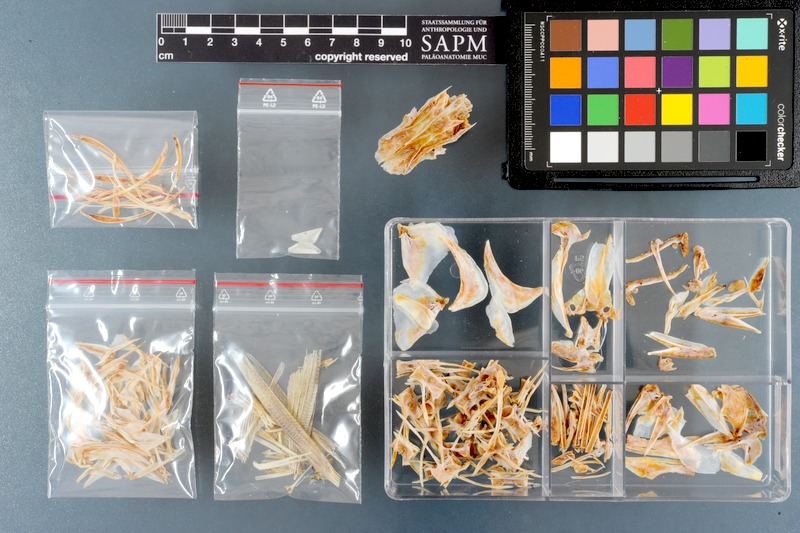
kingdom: Animalia
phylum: Chordata
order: Perciformes
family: Carangidae
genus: Scomberoides
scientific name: Scomberoides tol
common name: Needlescaled queenfish
